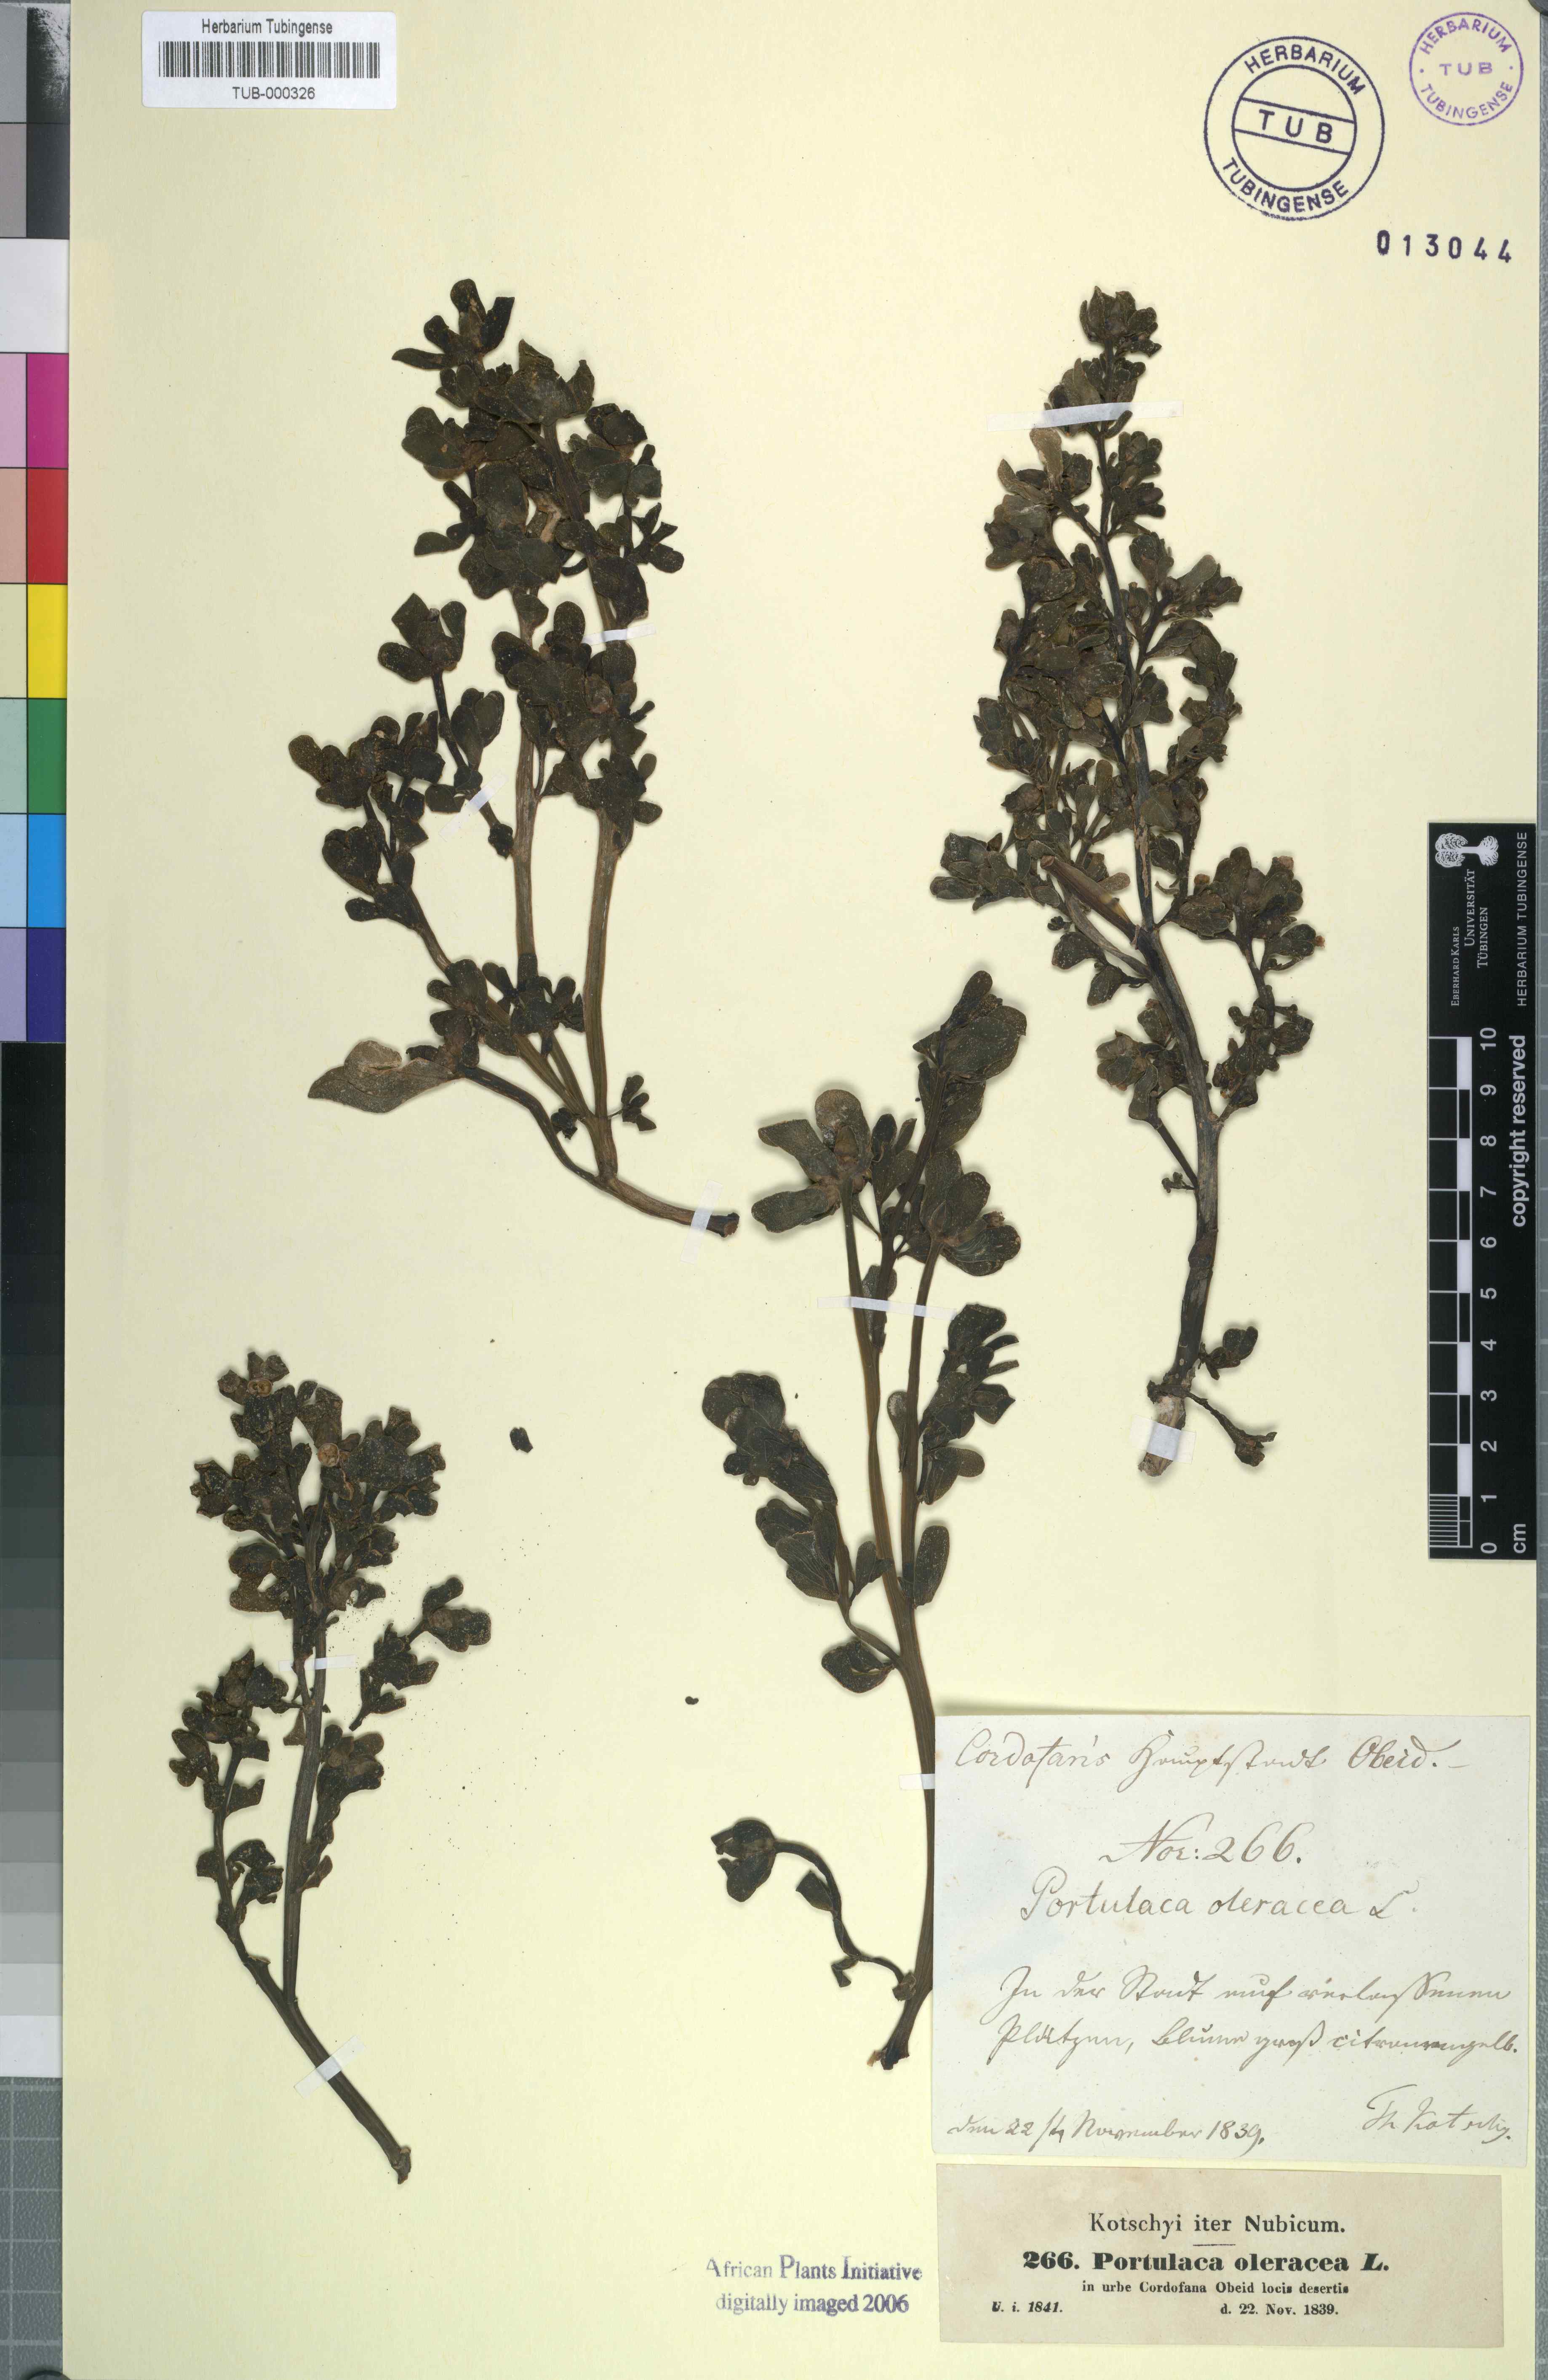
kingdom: Plantae
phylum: Tracheophyta
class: Magnoliopsida
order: Caryophyllales
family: Portulacaceae
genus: Portulaca
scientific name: Portulaca oleracea
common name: Common purslane
